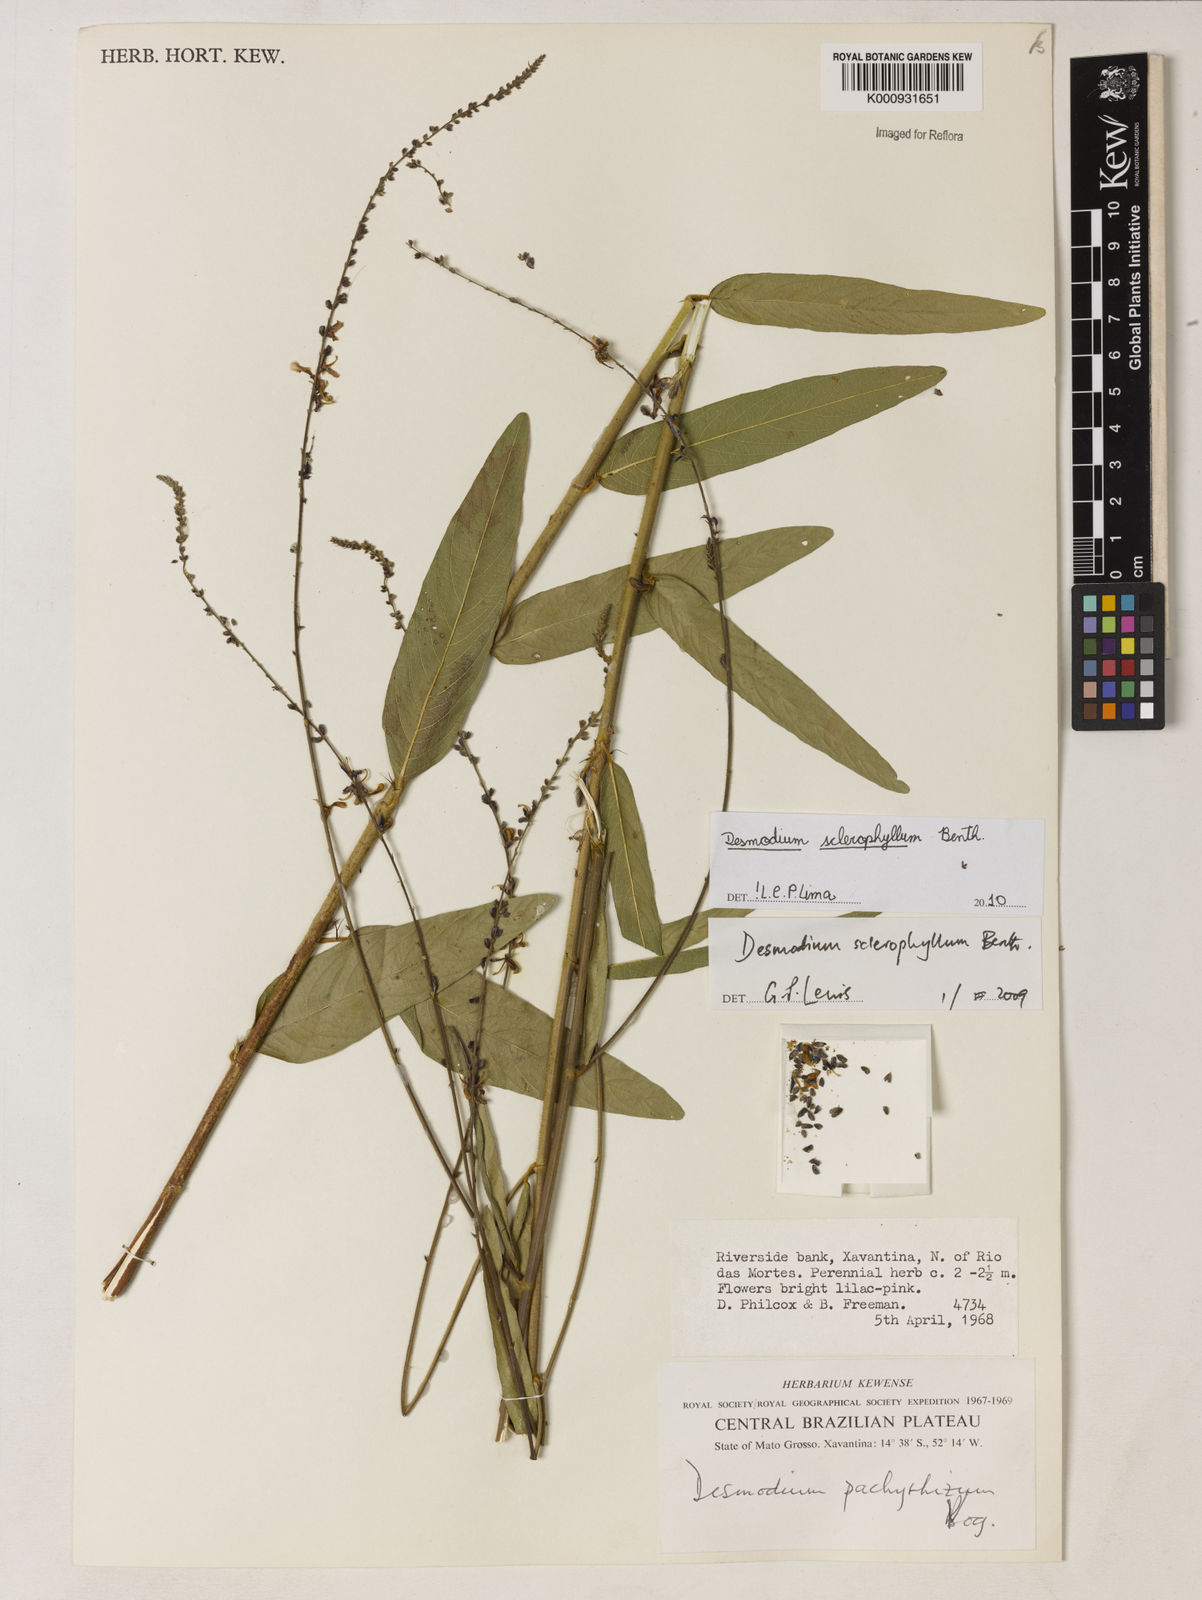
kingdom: Plantae
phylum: Tracheophyta
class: Magnoliopsida
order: Fabales
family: Fabaceae
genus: Desmodium
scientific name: Desmodium sclerophyllum
